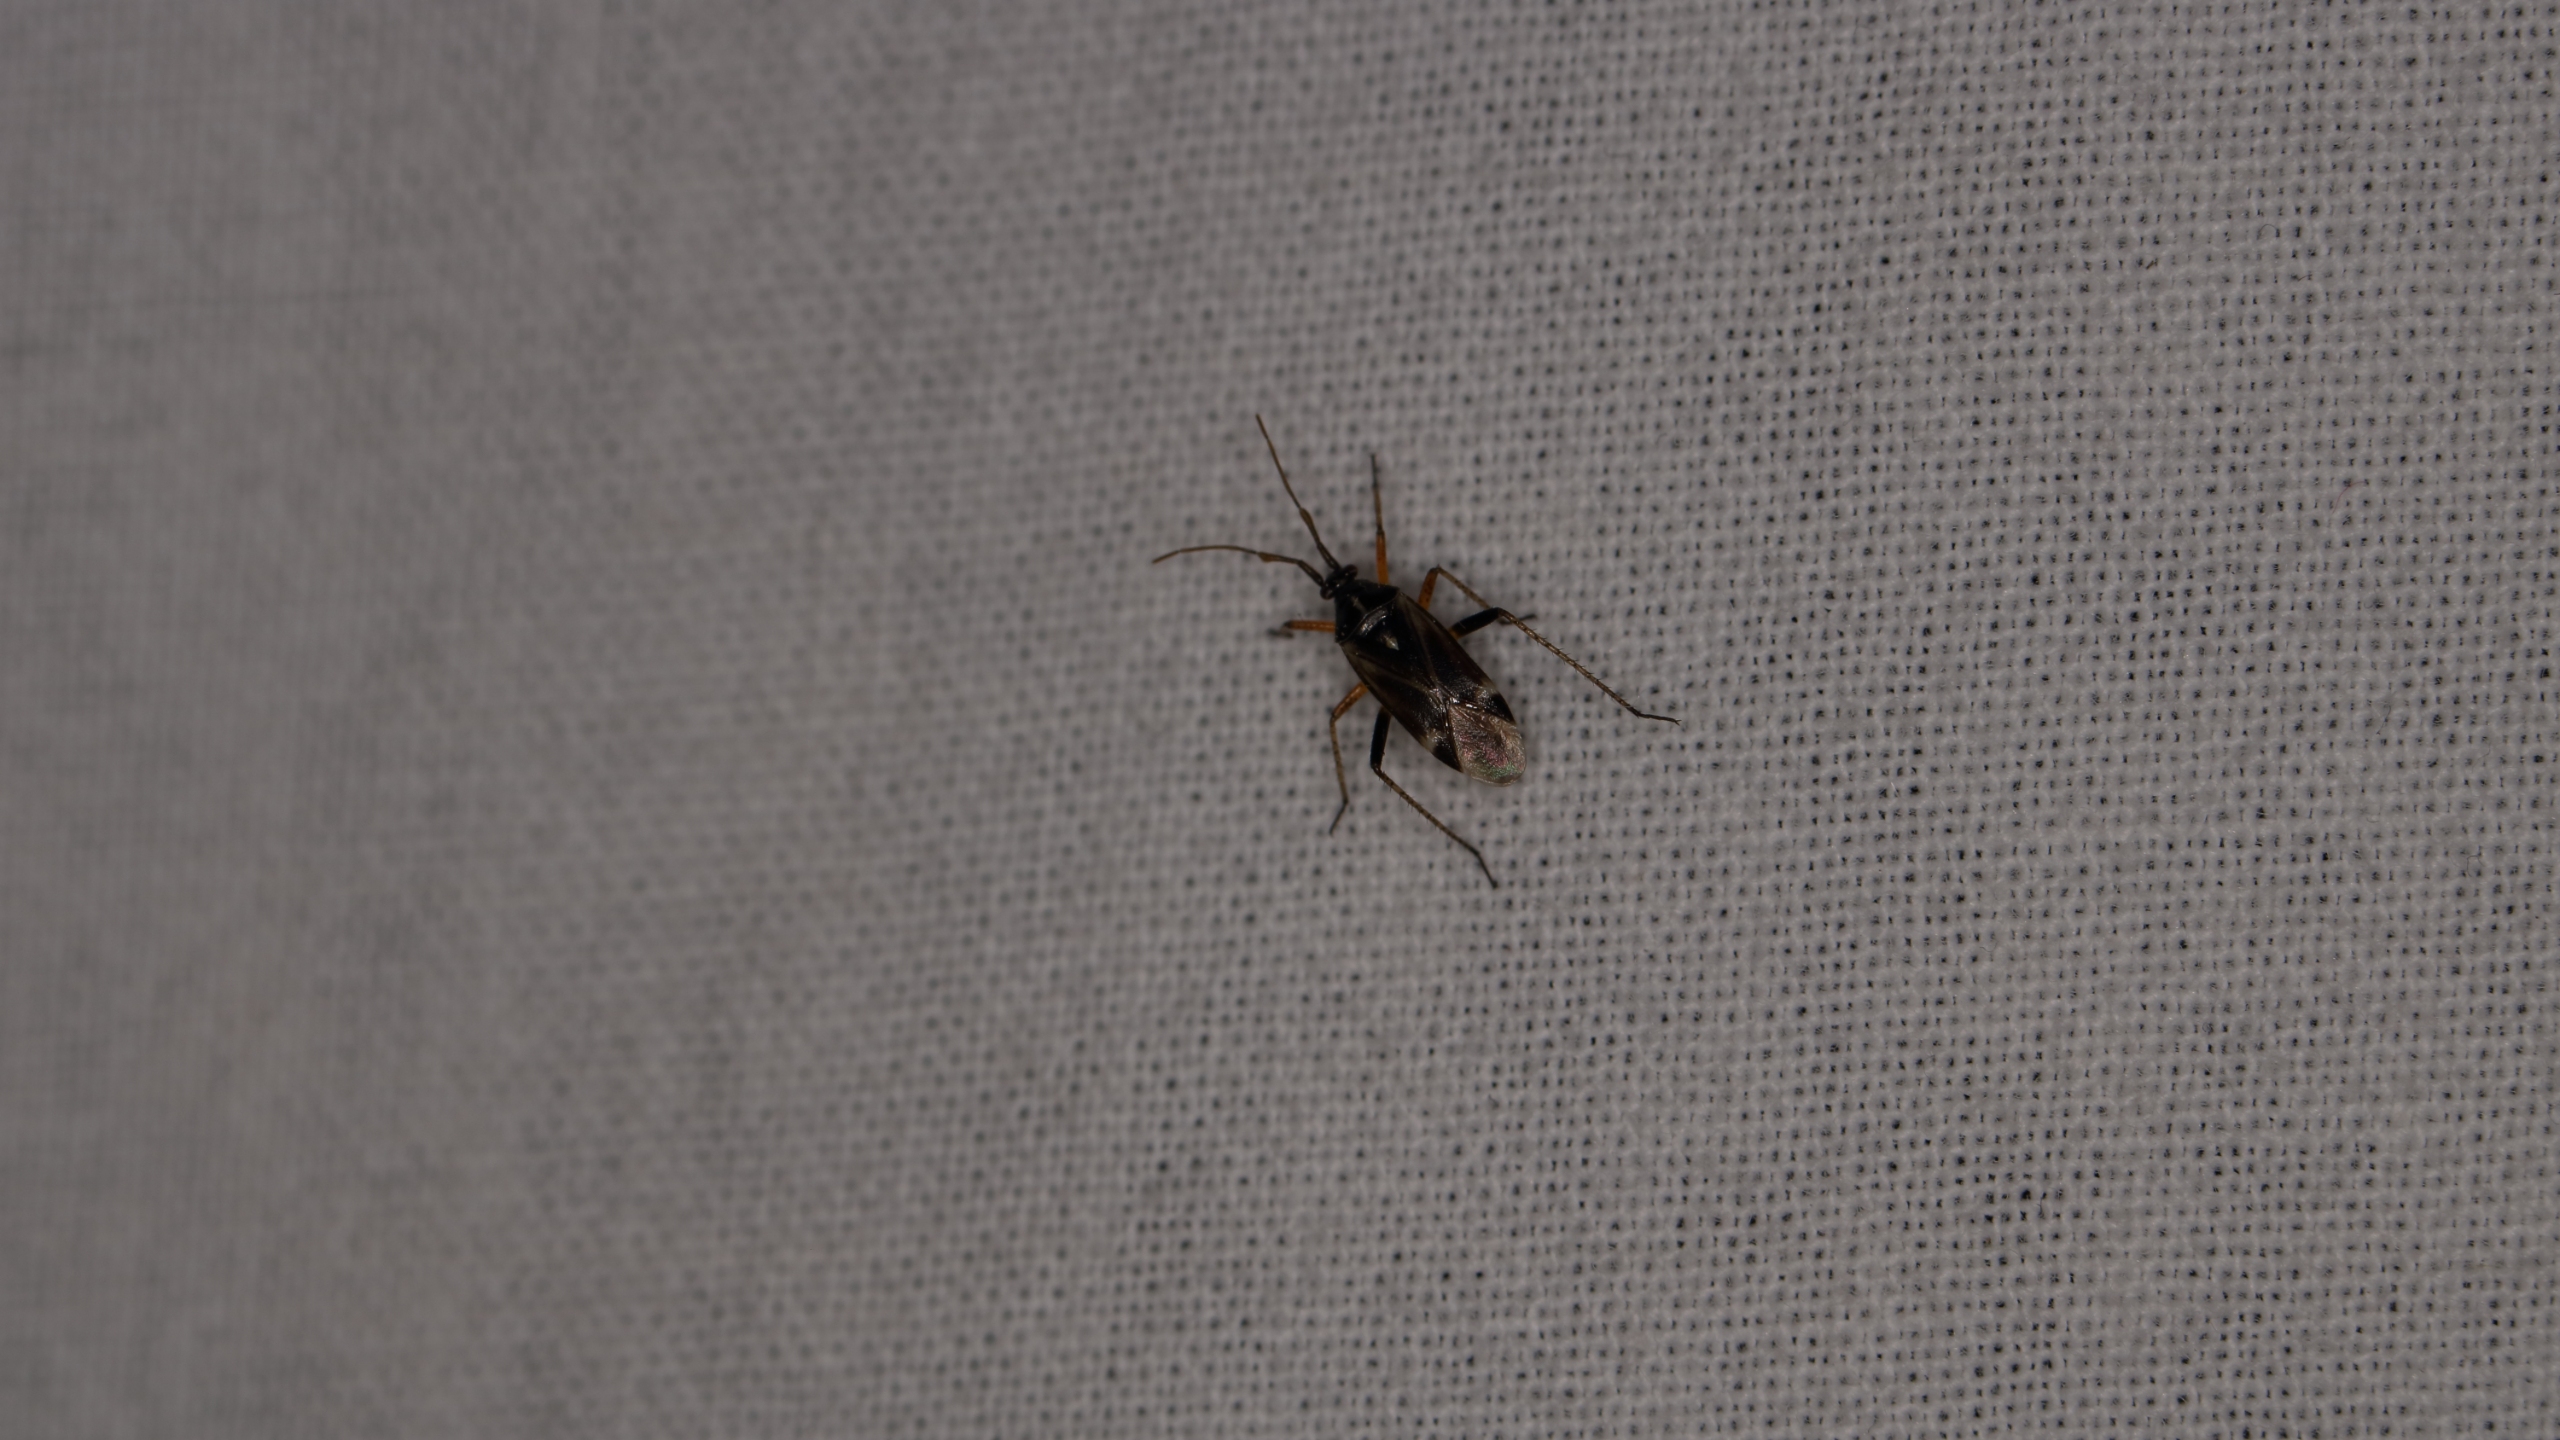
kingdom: Animalia
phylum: Arthropoda
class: Insecta
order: Hemiptera
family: Miridae
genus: Harpocera
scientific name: Harpocera thoracica
